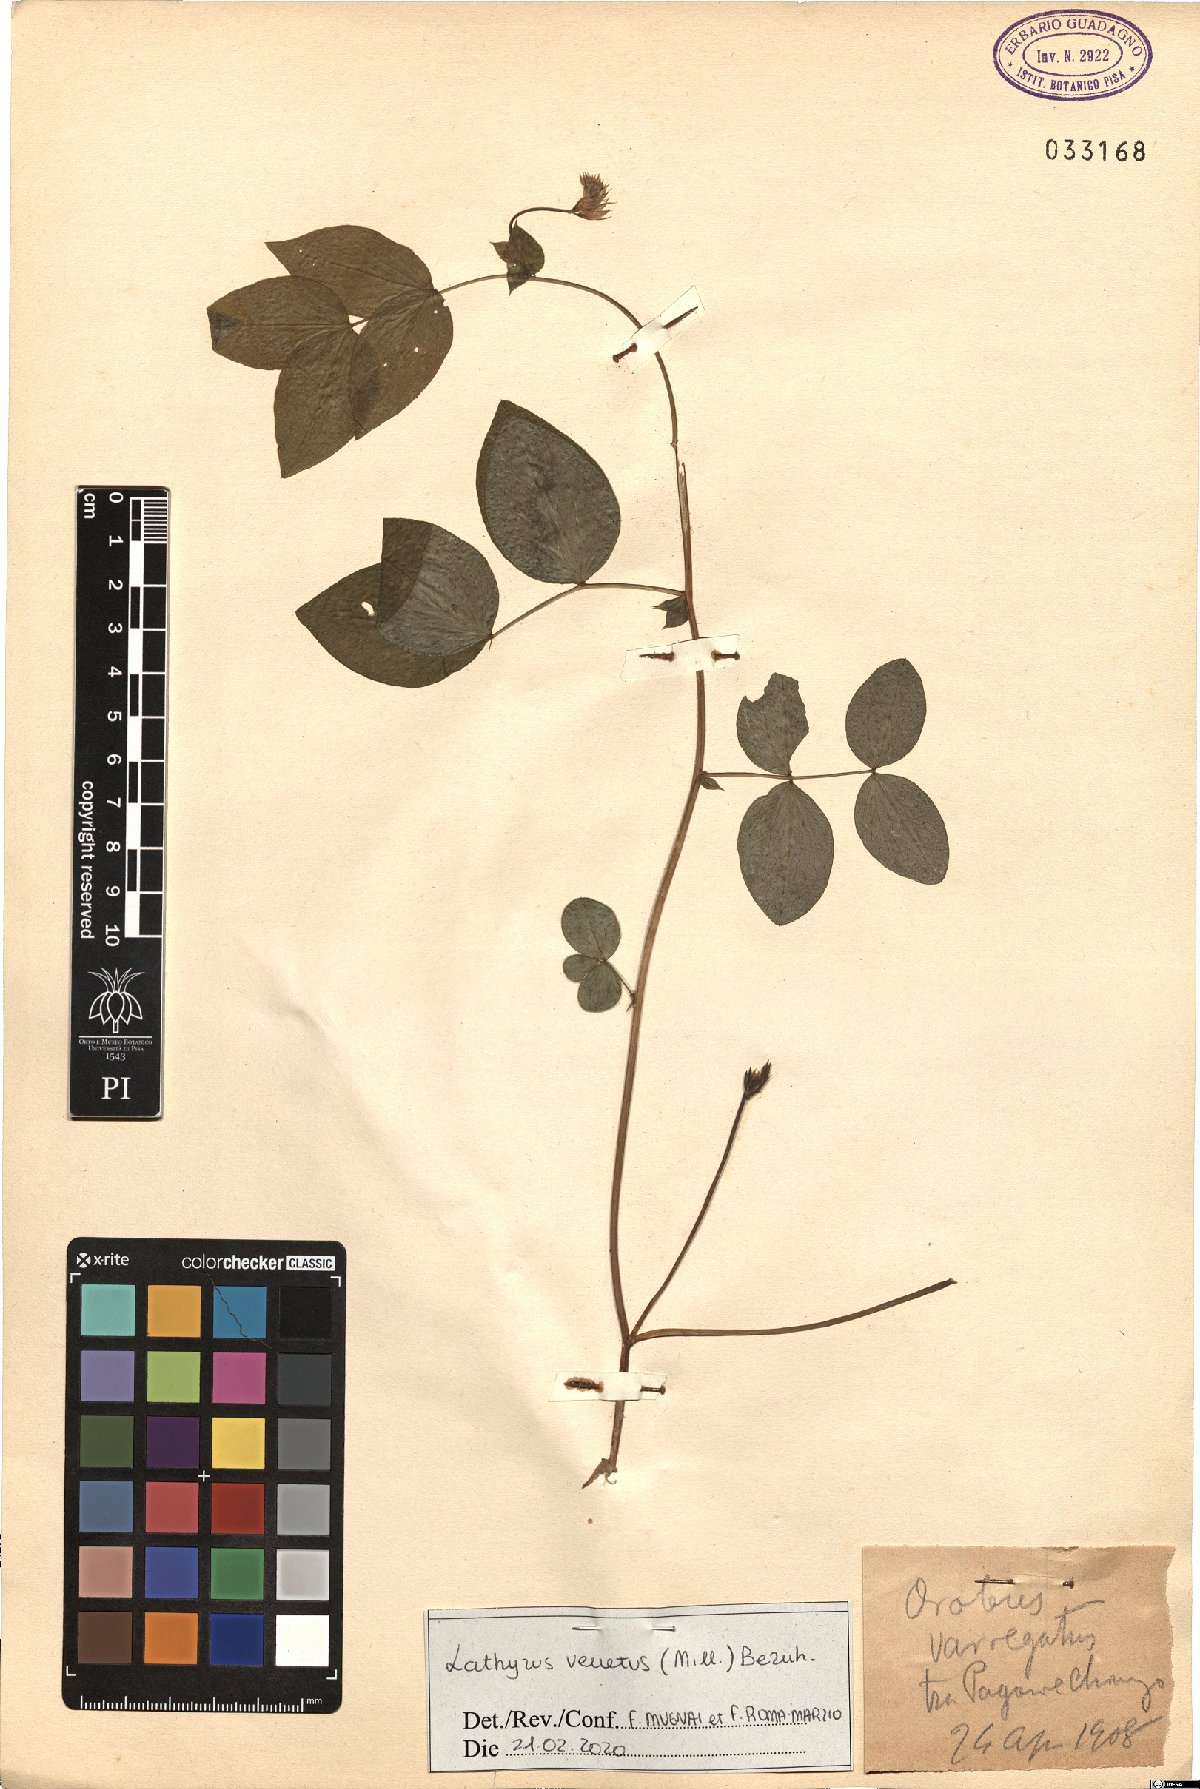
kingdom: Plantae
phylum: Tracheophyta
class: Magnoliopsida
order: Fabales
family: Fabaceae
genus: Lathyrus
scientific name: Lathyrus venetus
